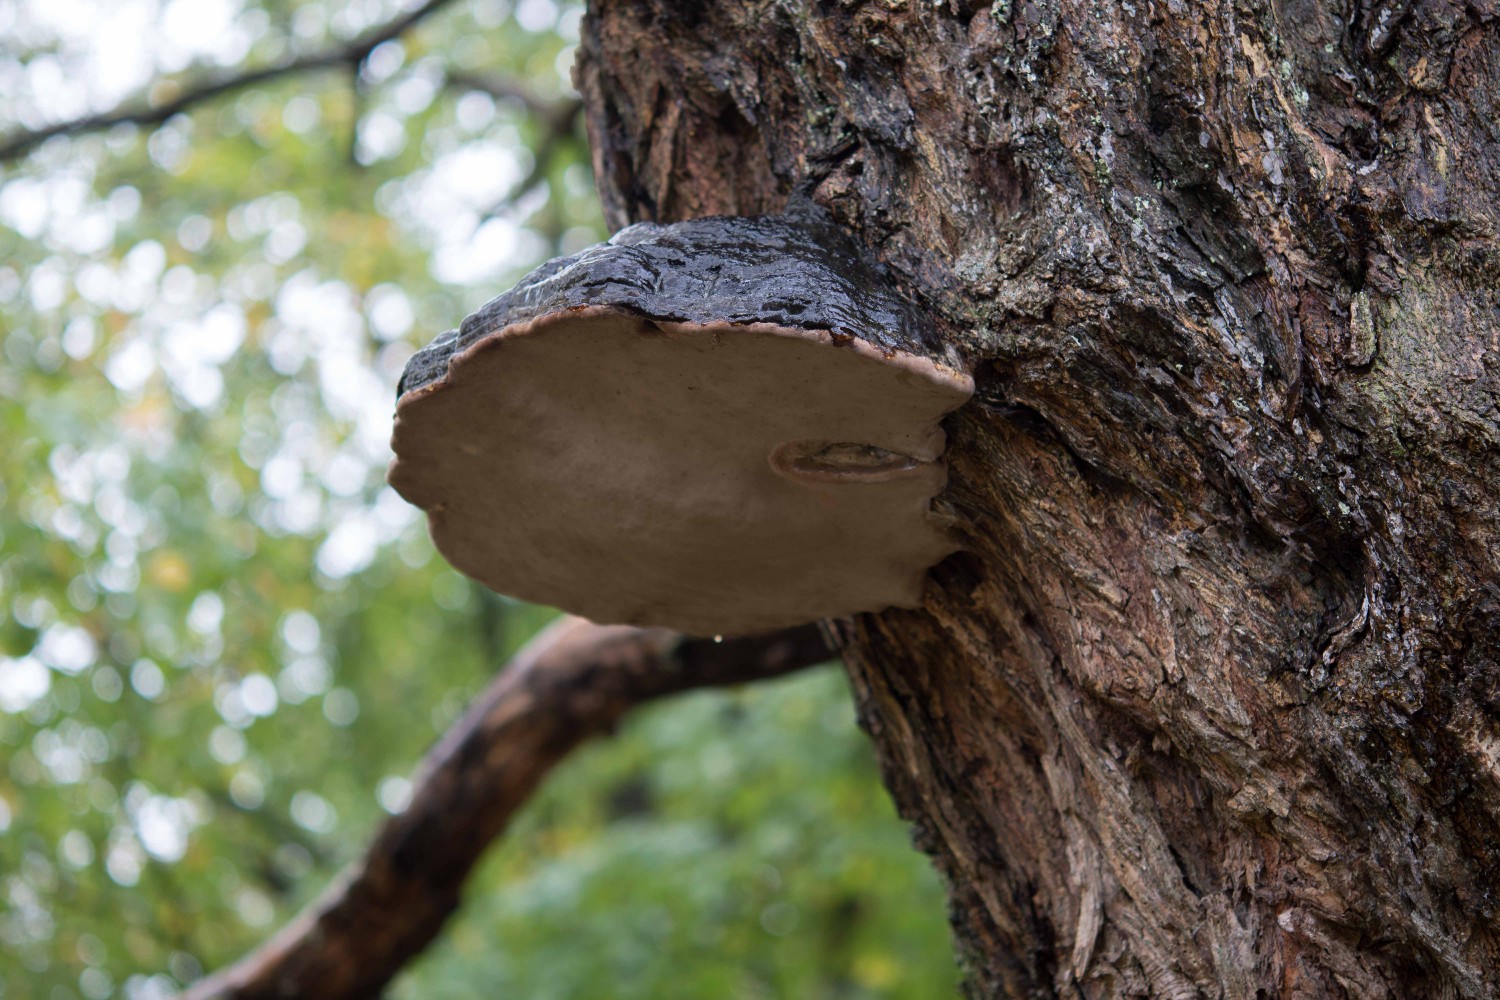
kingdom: Fungi
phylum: Basidiomycota
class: Agaricomycetes
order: Polyporales
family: Polyporaceae
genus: Fomes
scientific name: Fomes fomentarius
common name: tøndersvamp
